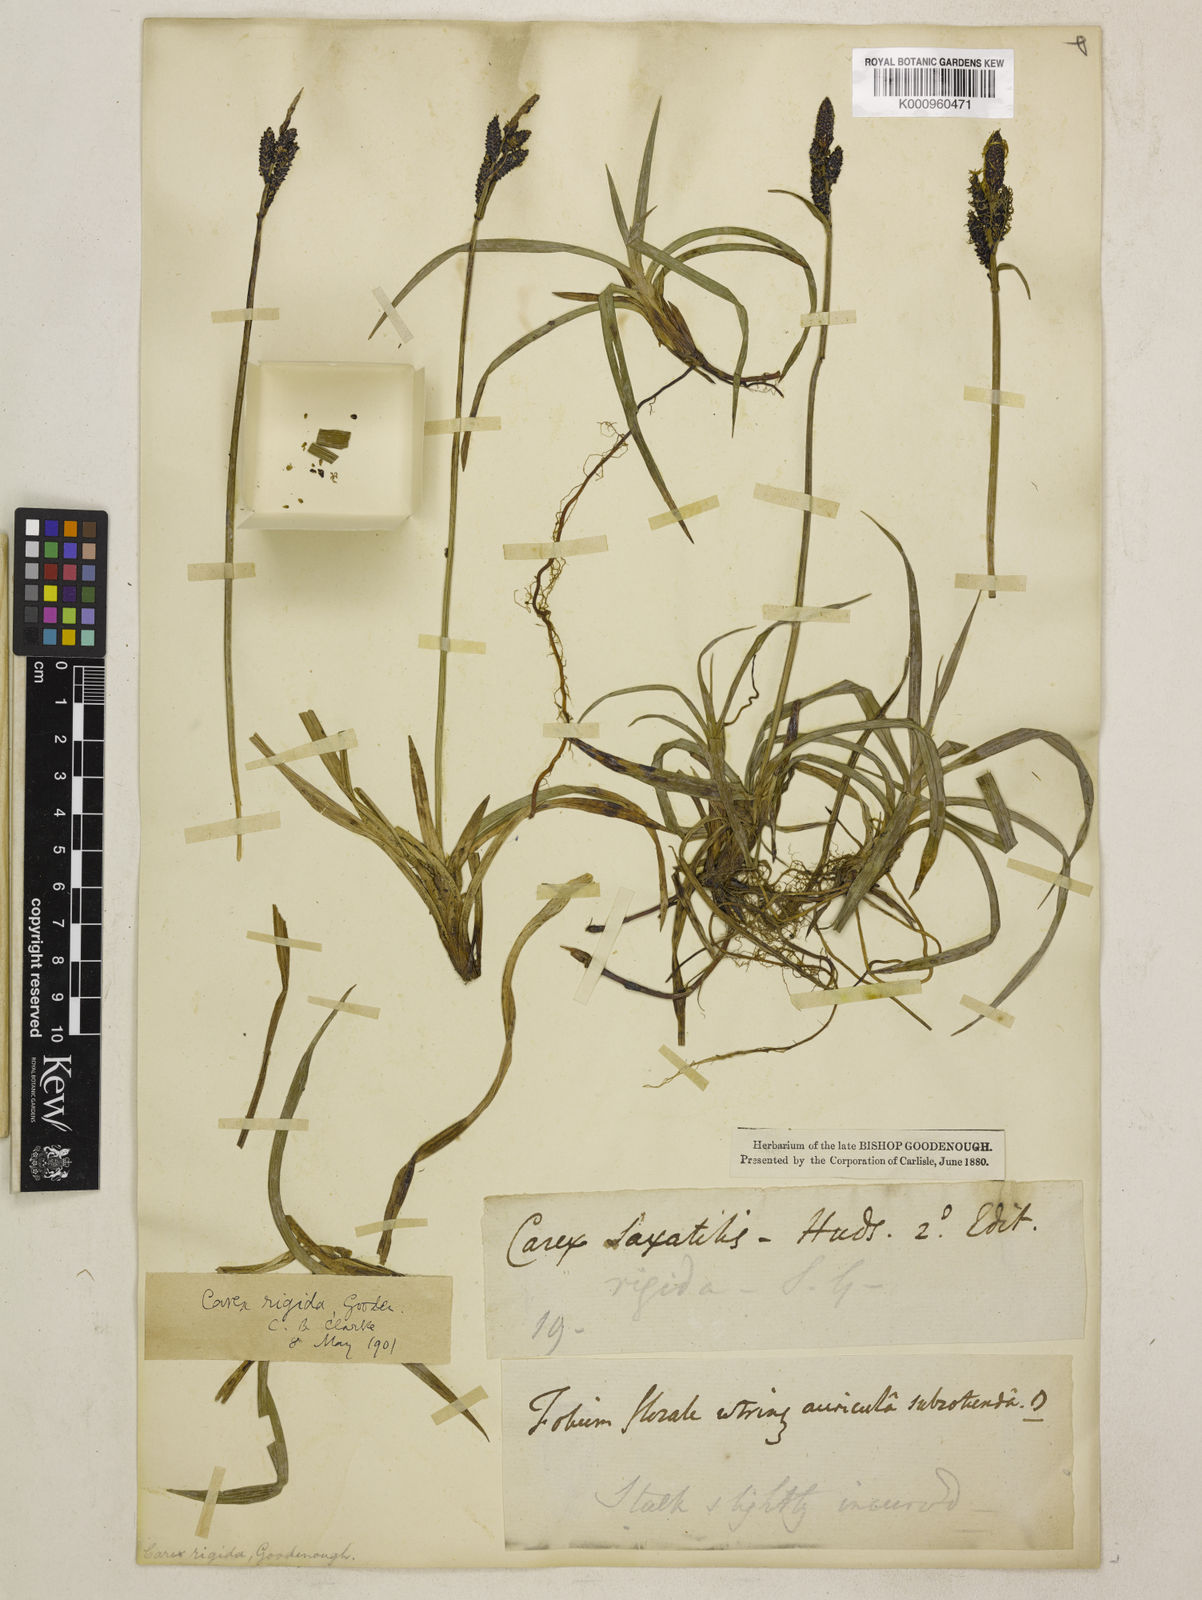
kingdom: Plantae
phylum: Tracheophyta
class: Liliopsida
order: Poales
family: Cyperaceae
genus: Carex
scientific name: Carex bigelowii
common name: Stiff sedge
